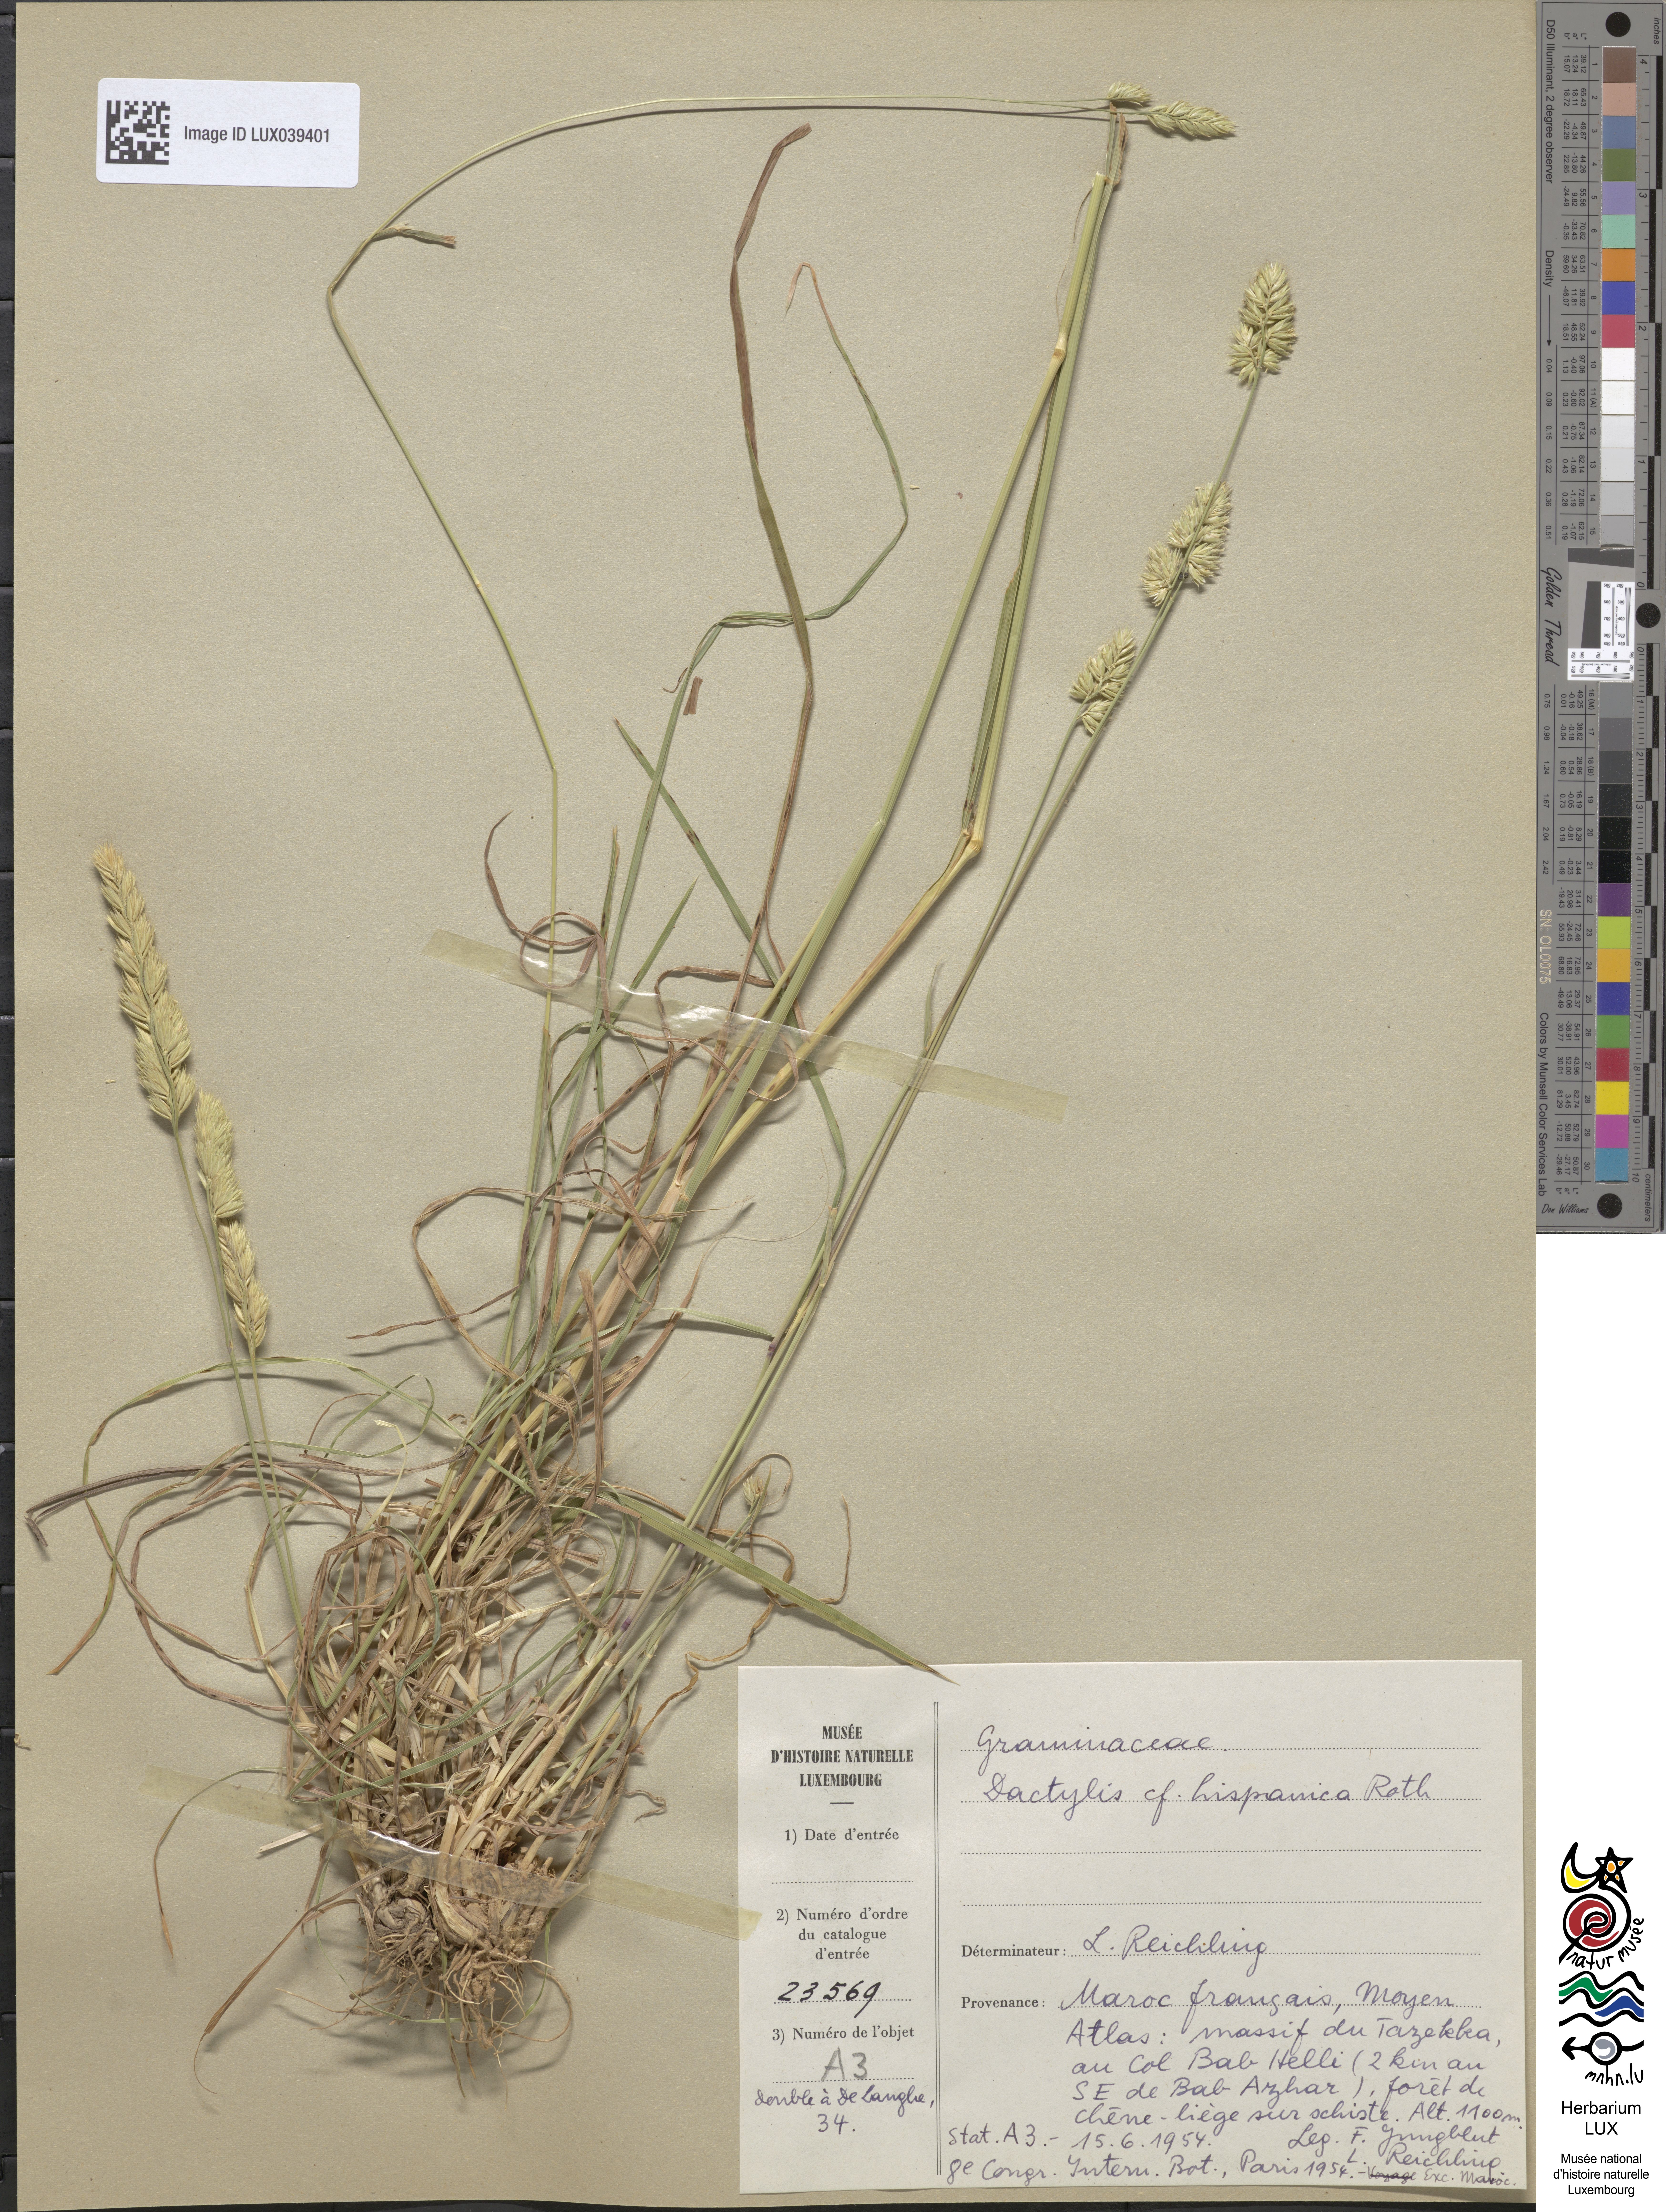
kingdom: Plantae
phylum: Tracheophyta
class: Liliopsida
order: Poales
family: Poaceae
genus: Dactylis
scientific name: Dactylis glomerata
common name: Orchardgrass
